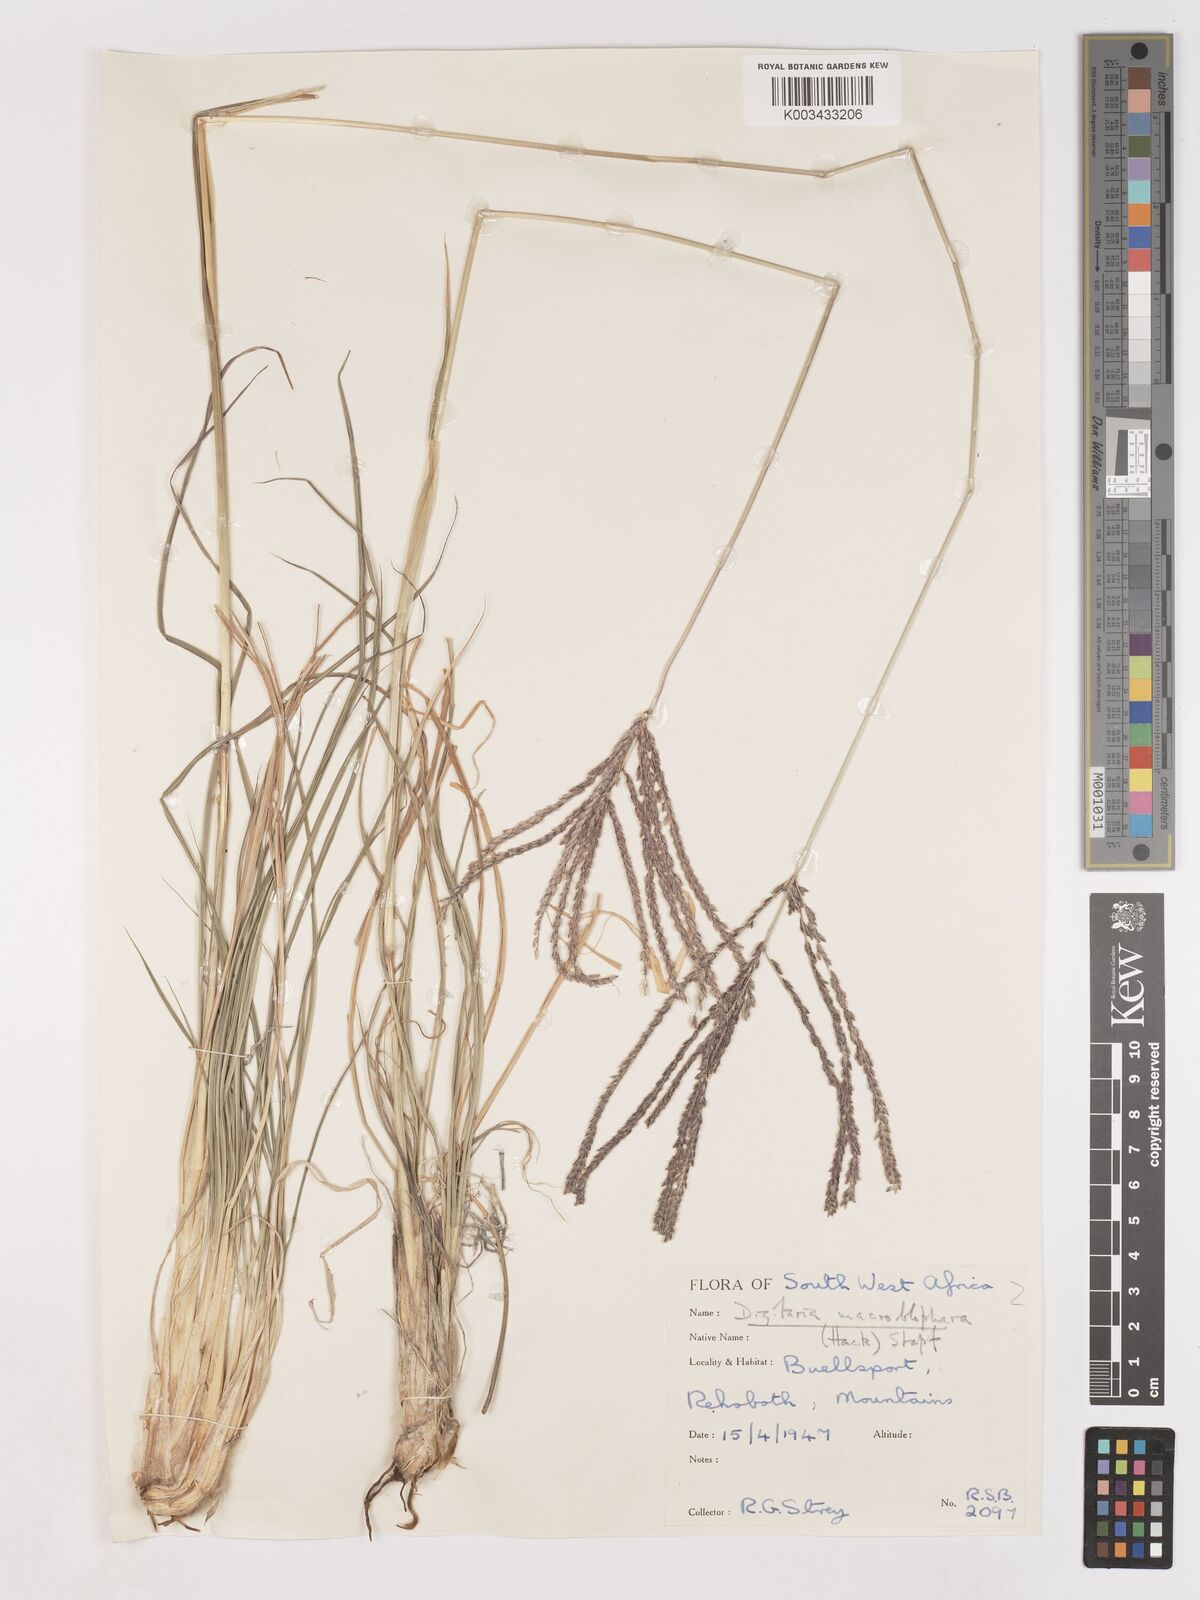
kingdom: Plantae
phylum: Tracheophyta
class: Liliopsida
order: Poales
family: Poaceae
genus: Digitaria
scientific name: Digitaria eriantha
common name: Digitgrass
